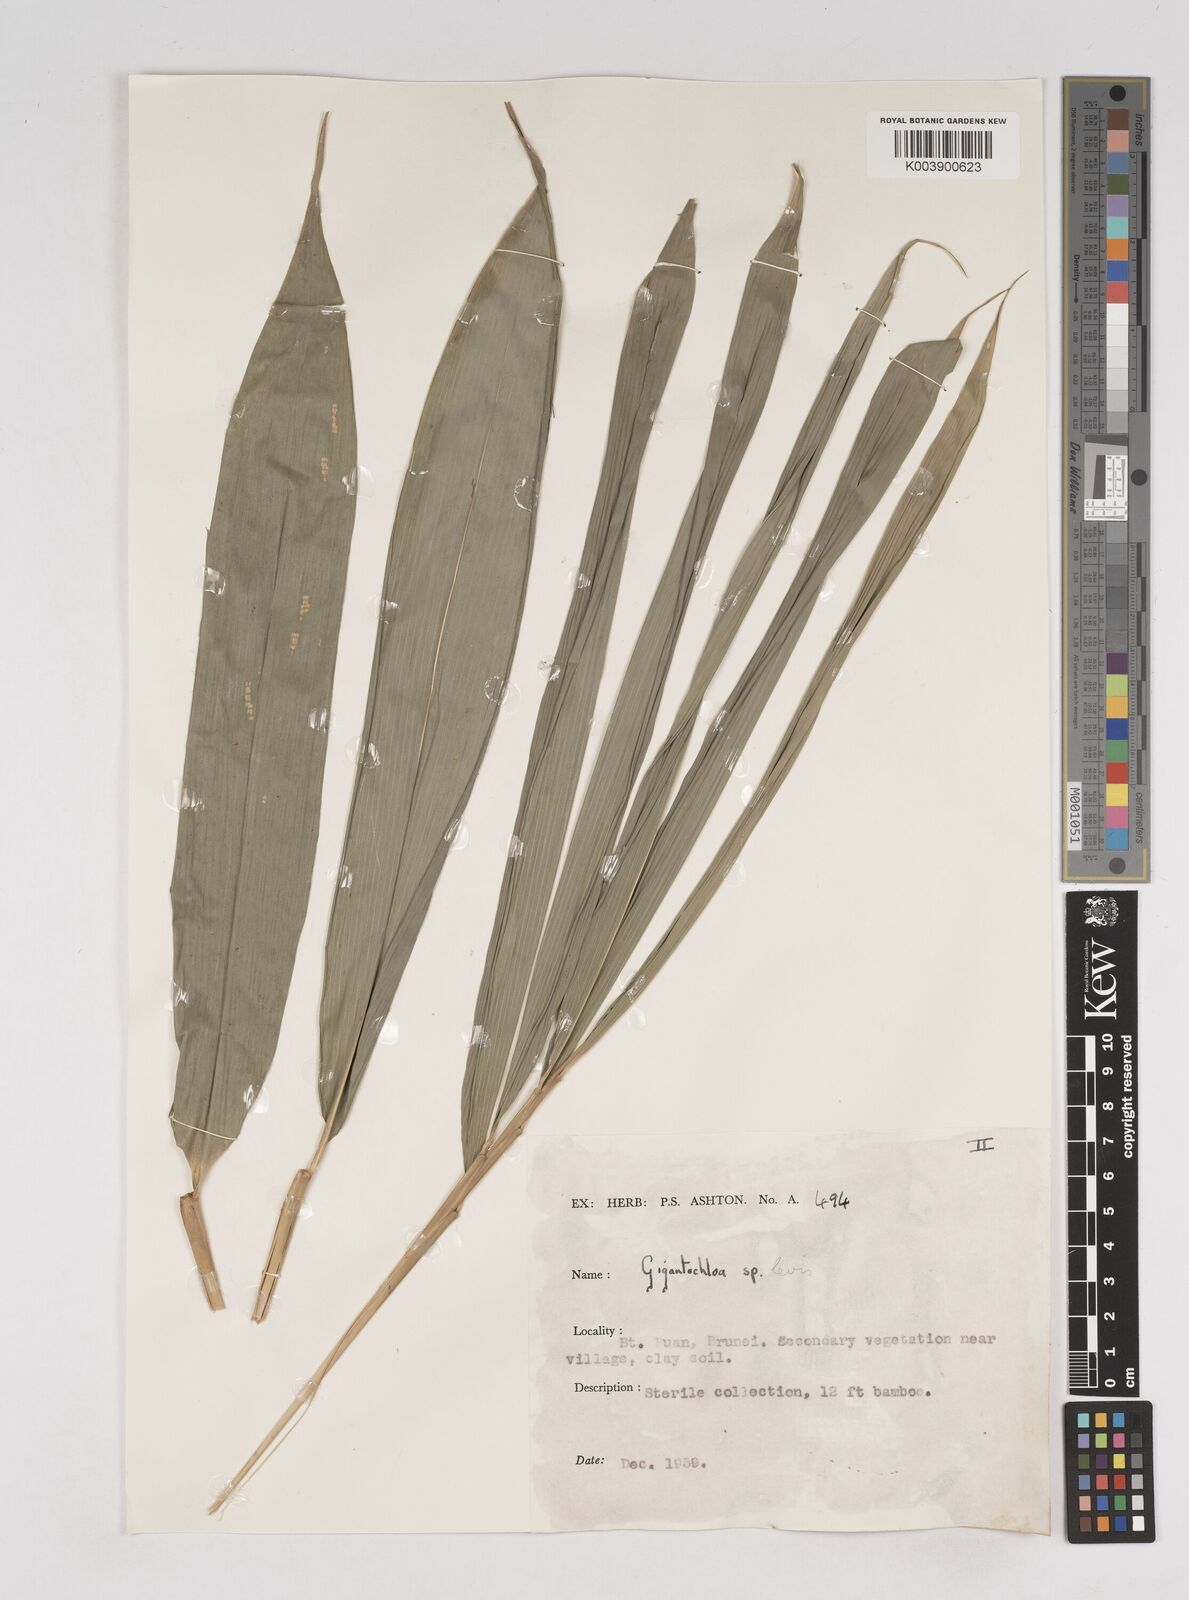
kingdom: Plantae
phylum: Tracheophyta
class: Liliopsida
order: Poales
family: Poaceae
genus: Gigantochloa
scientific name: Gigantochloa
